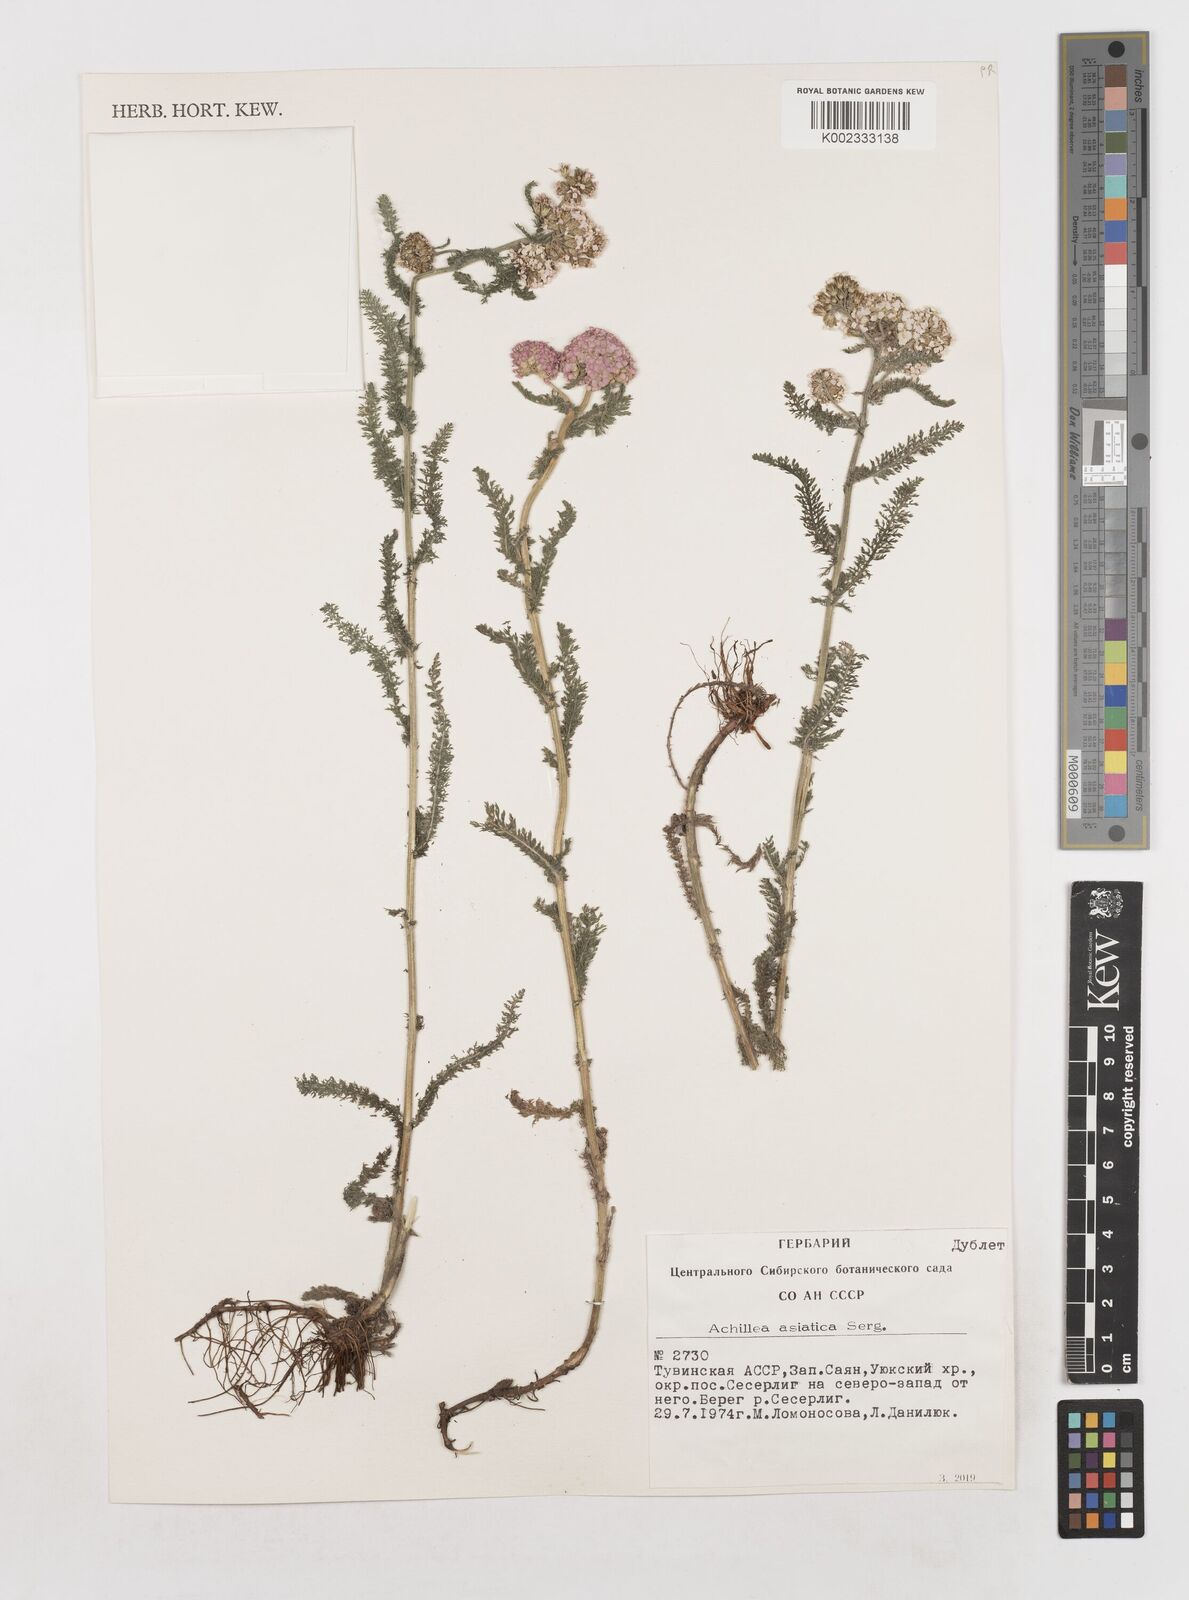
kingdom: Plantae
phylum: Tracheophyta
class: Magnoliopsida
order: Asterales
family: Asteraceae
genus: Achillea
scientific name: Achillea asiatica
